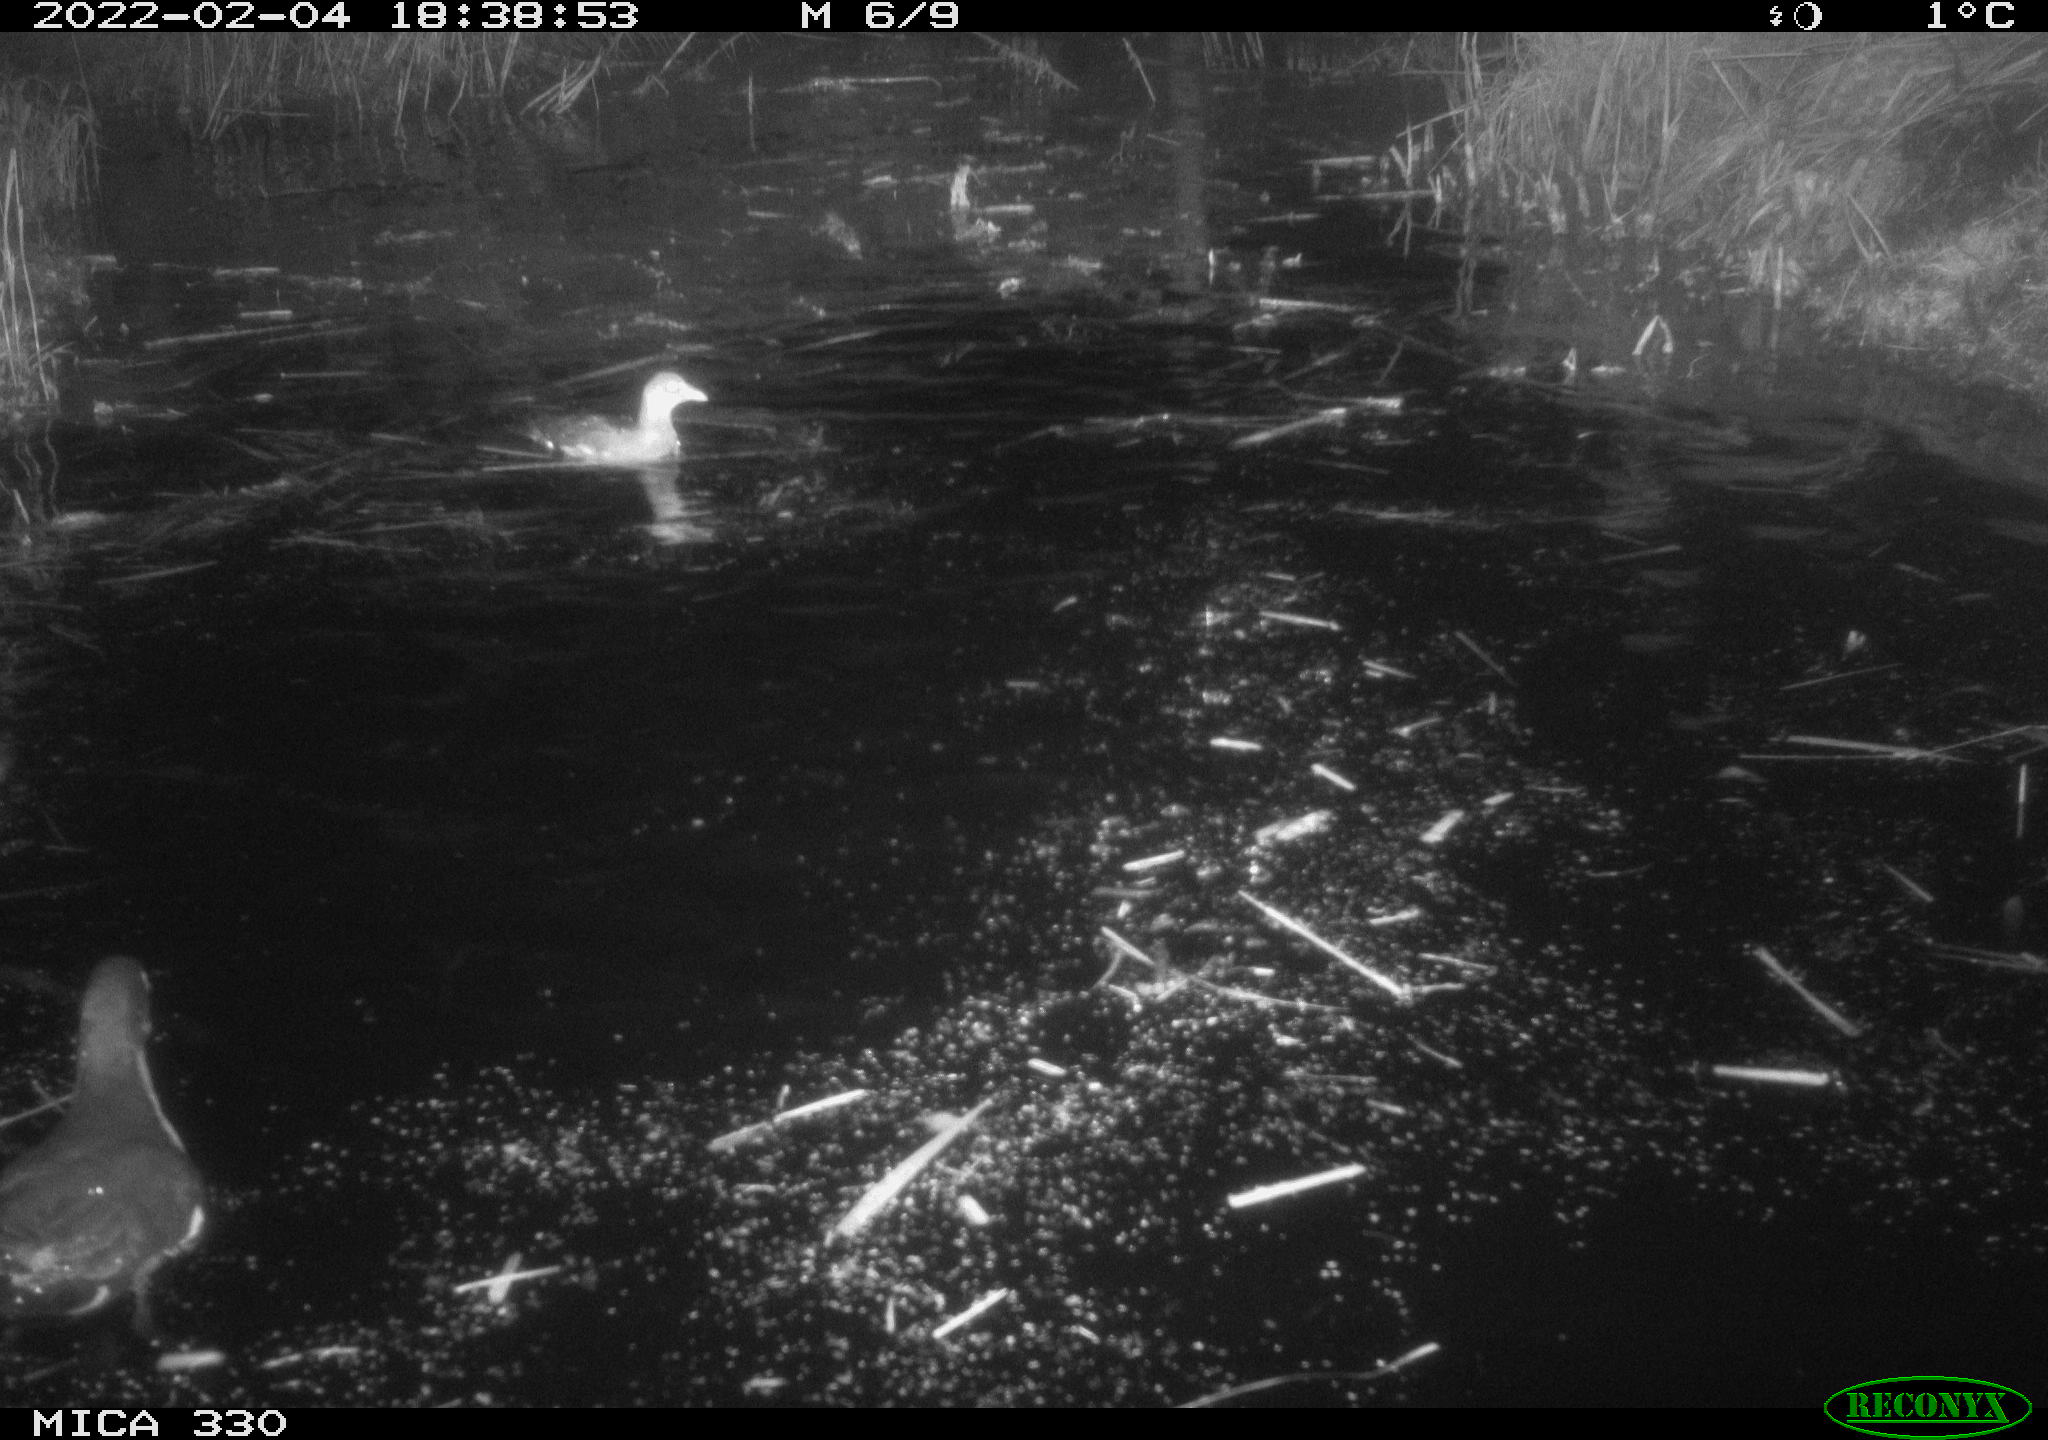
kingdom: Animalia
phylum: Chordata
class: Aves
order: Gruiformes
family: Rallidae
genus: Gallinula
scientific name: Gallinula chloropus
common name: Common moorhen
